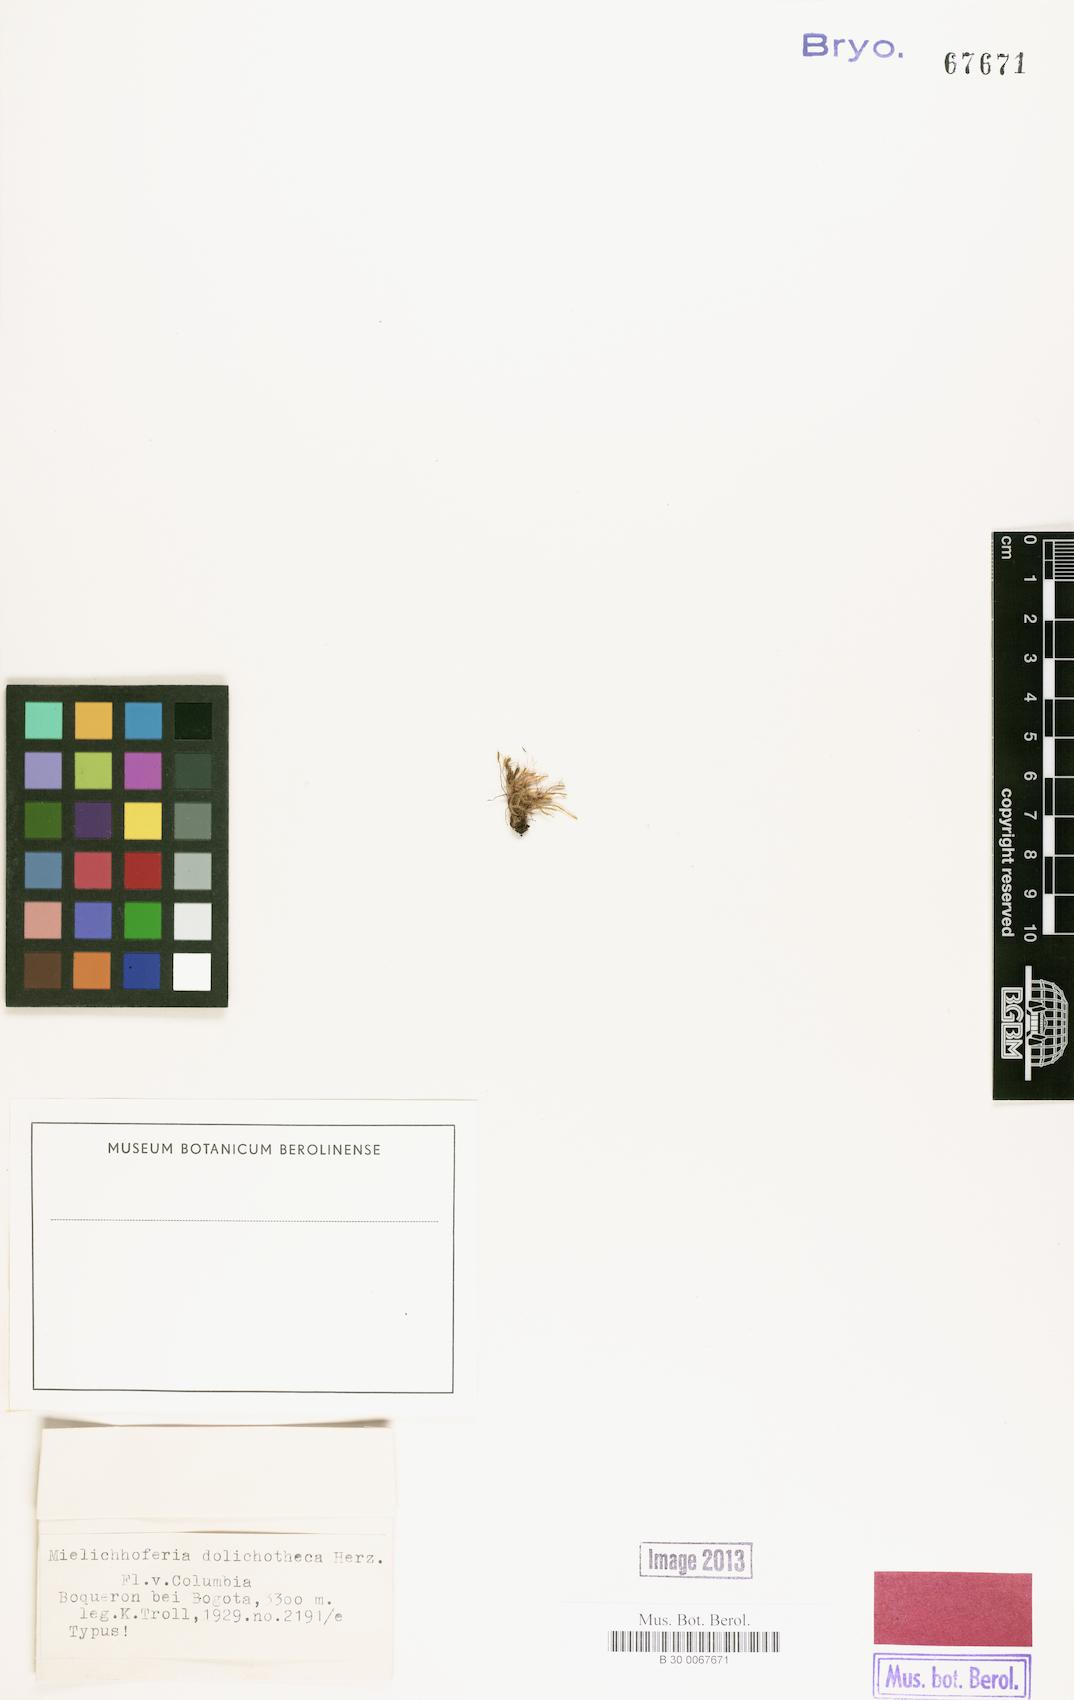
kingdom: Plantae
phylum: Bryophyta
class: Bryopsida
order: Bryales
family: Mniaceae
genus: Schizymenium
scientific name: Schizymenium dolichothecum
